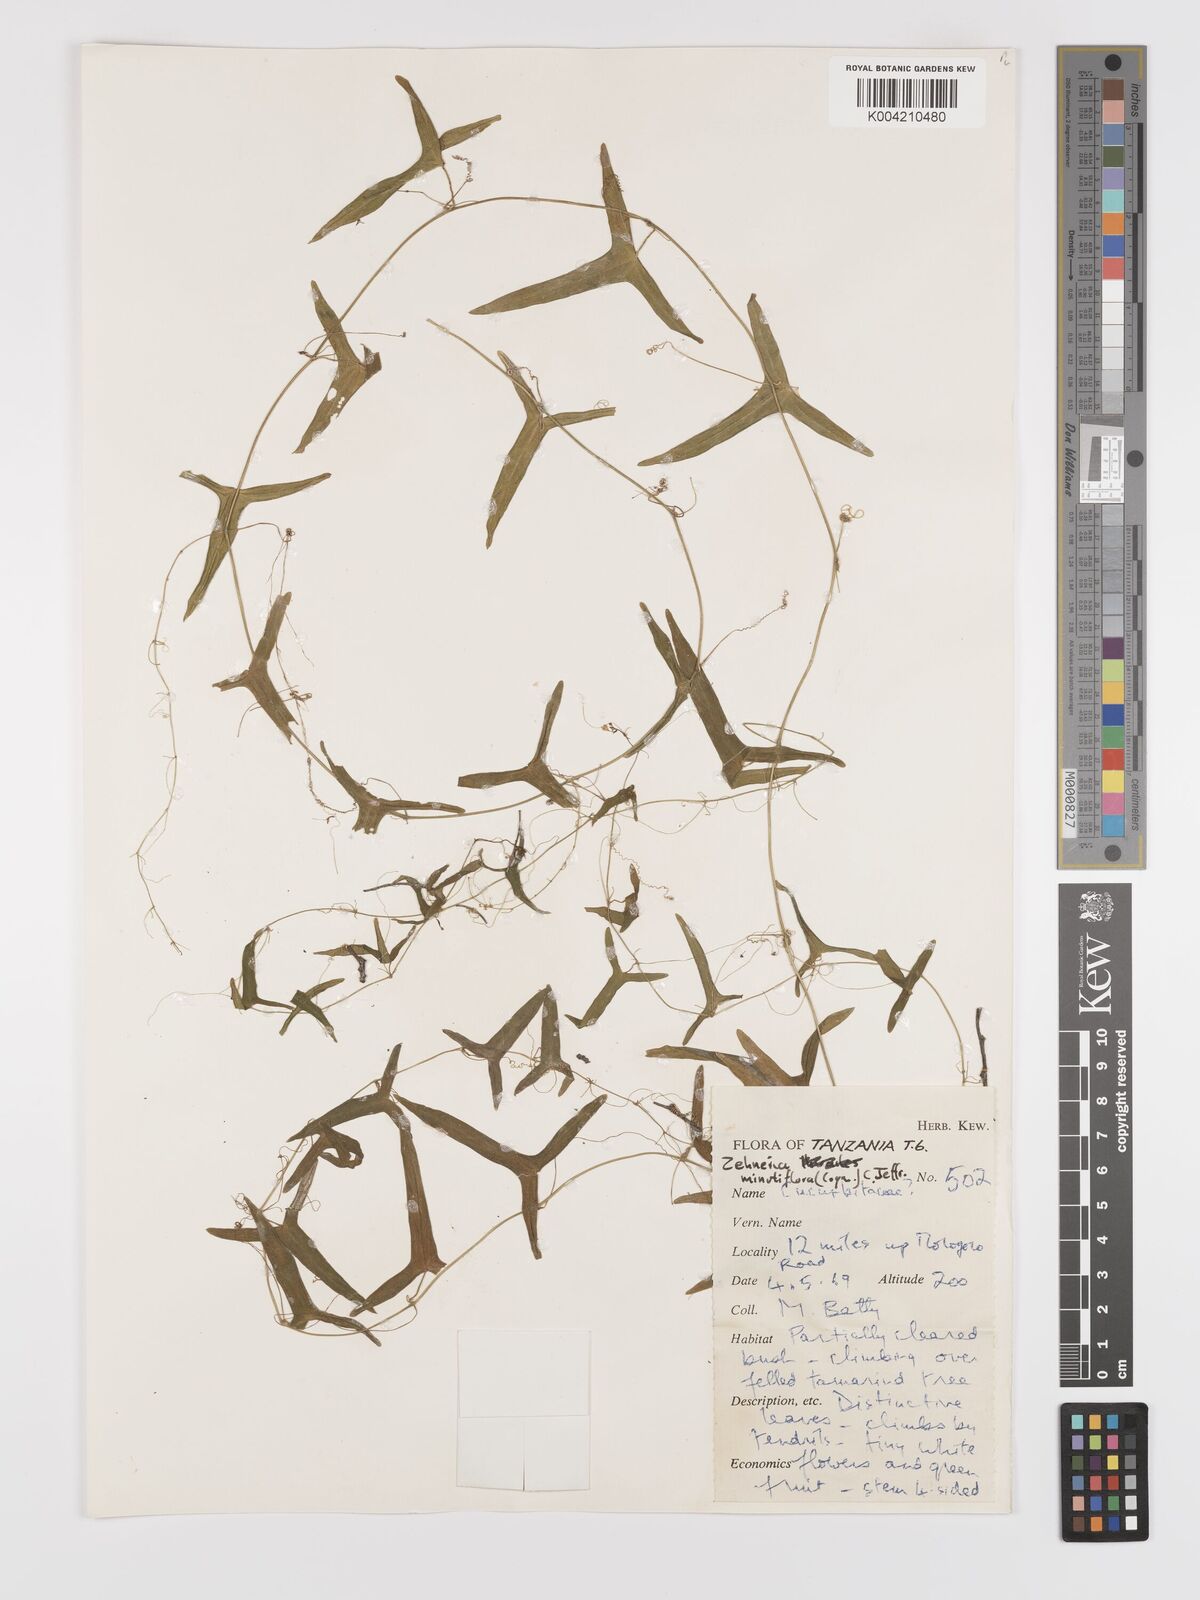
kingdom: Plantae
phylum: Tracheophyta
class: Magnoliopsida
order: Cucurbitales
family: Cucurbitaceae
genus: Zehneria
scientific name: Zehneria minutiflora
